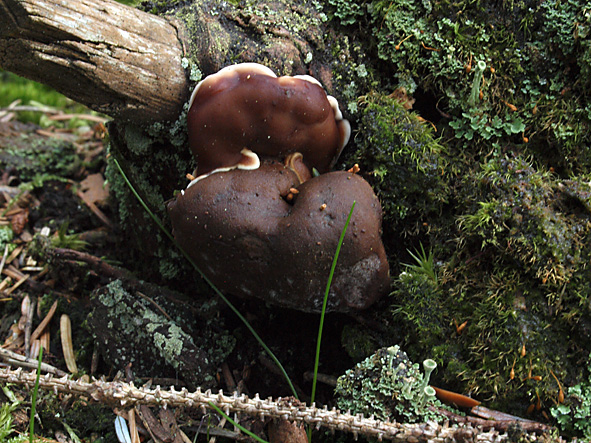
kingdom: Fungi
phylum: Ascomycota
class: Pezizomycetes
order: Pezizales
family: Rhizinaceae
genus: Rhizina
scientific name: Rhizina undulata
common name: rodmorkel
